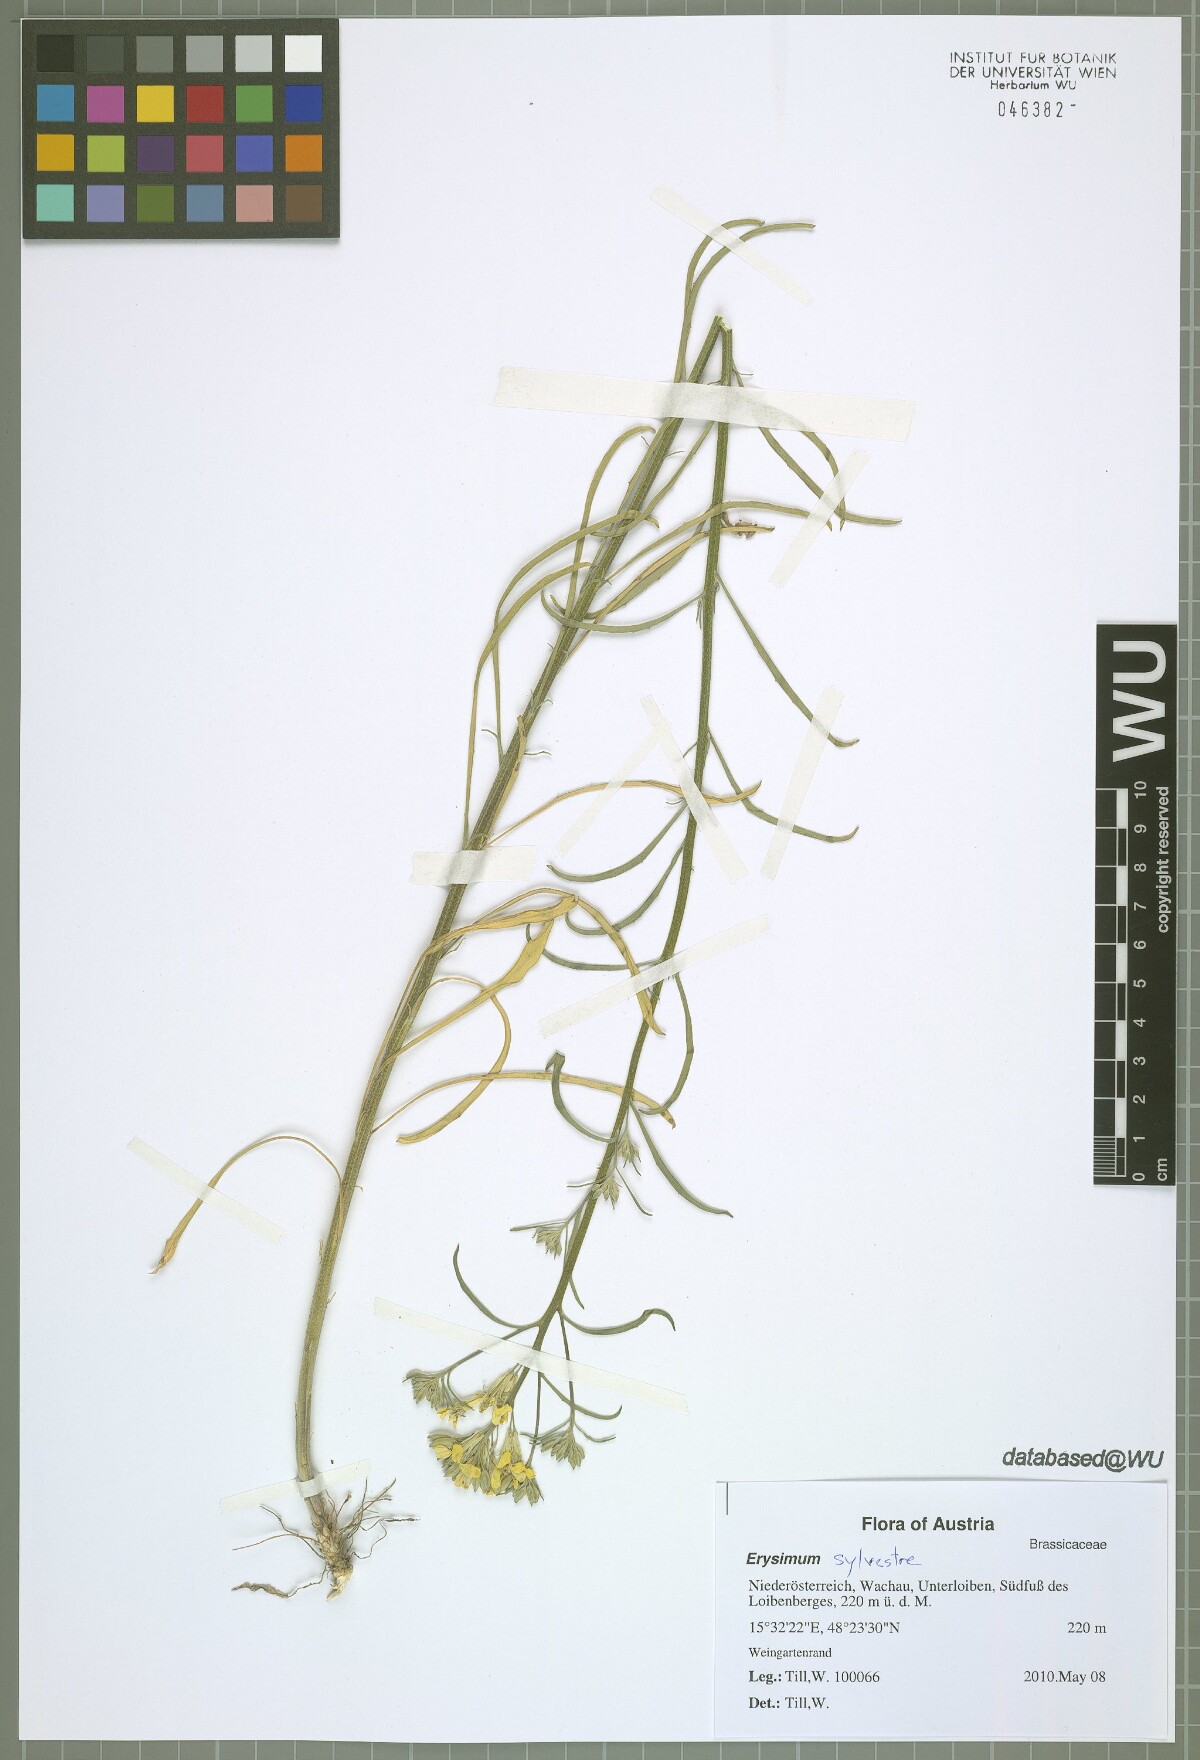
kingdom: Plantae
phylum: Tracheophyta
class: Magnoliopsida
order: Brassicales
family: Brassicaceae
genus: Erysimum
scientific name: Erysimum sylvestre
